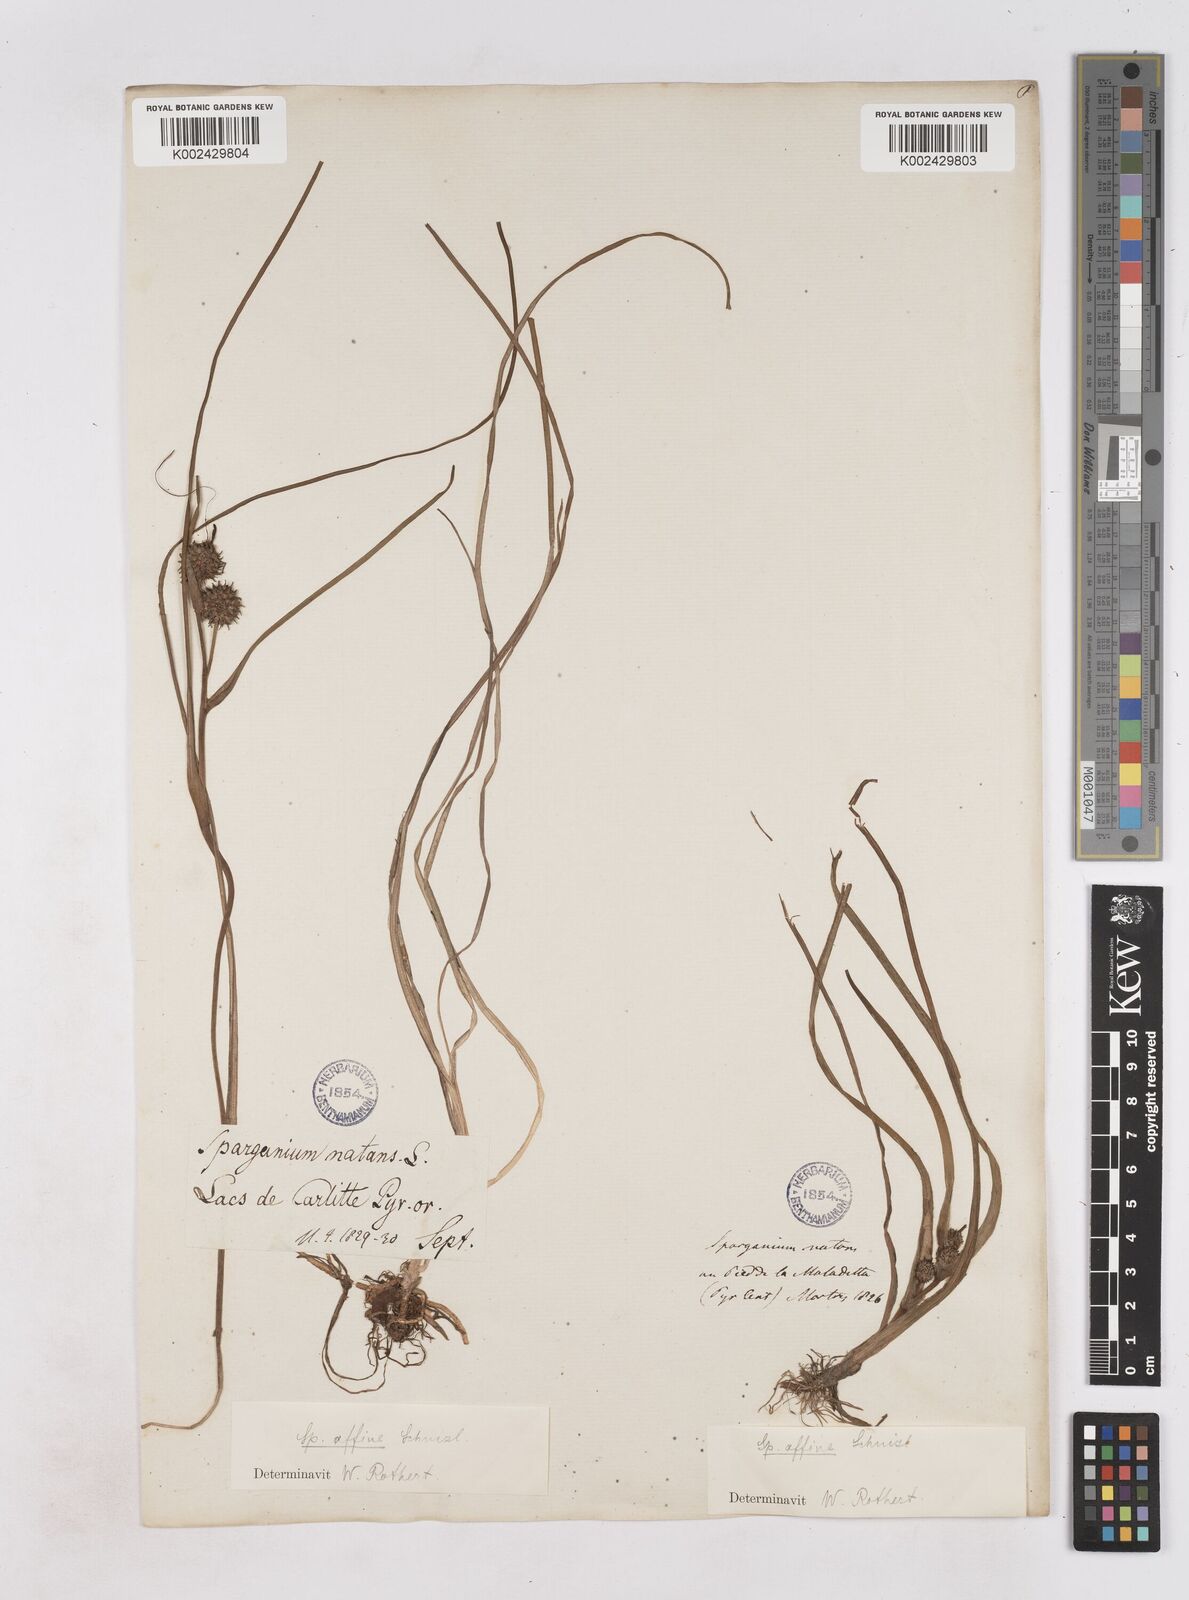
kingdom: Plantae
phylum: Tracheophyta
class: Liliopsida
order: Poales
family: Typhaceae
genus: Sparganium
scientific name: Sparganium angustifolium
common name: Floating bur-reed
